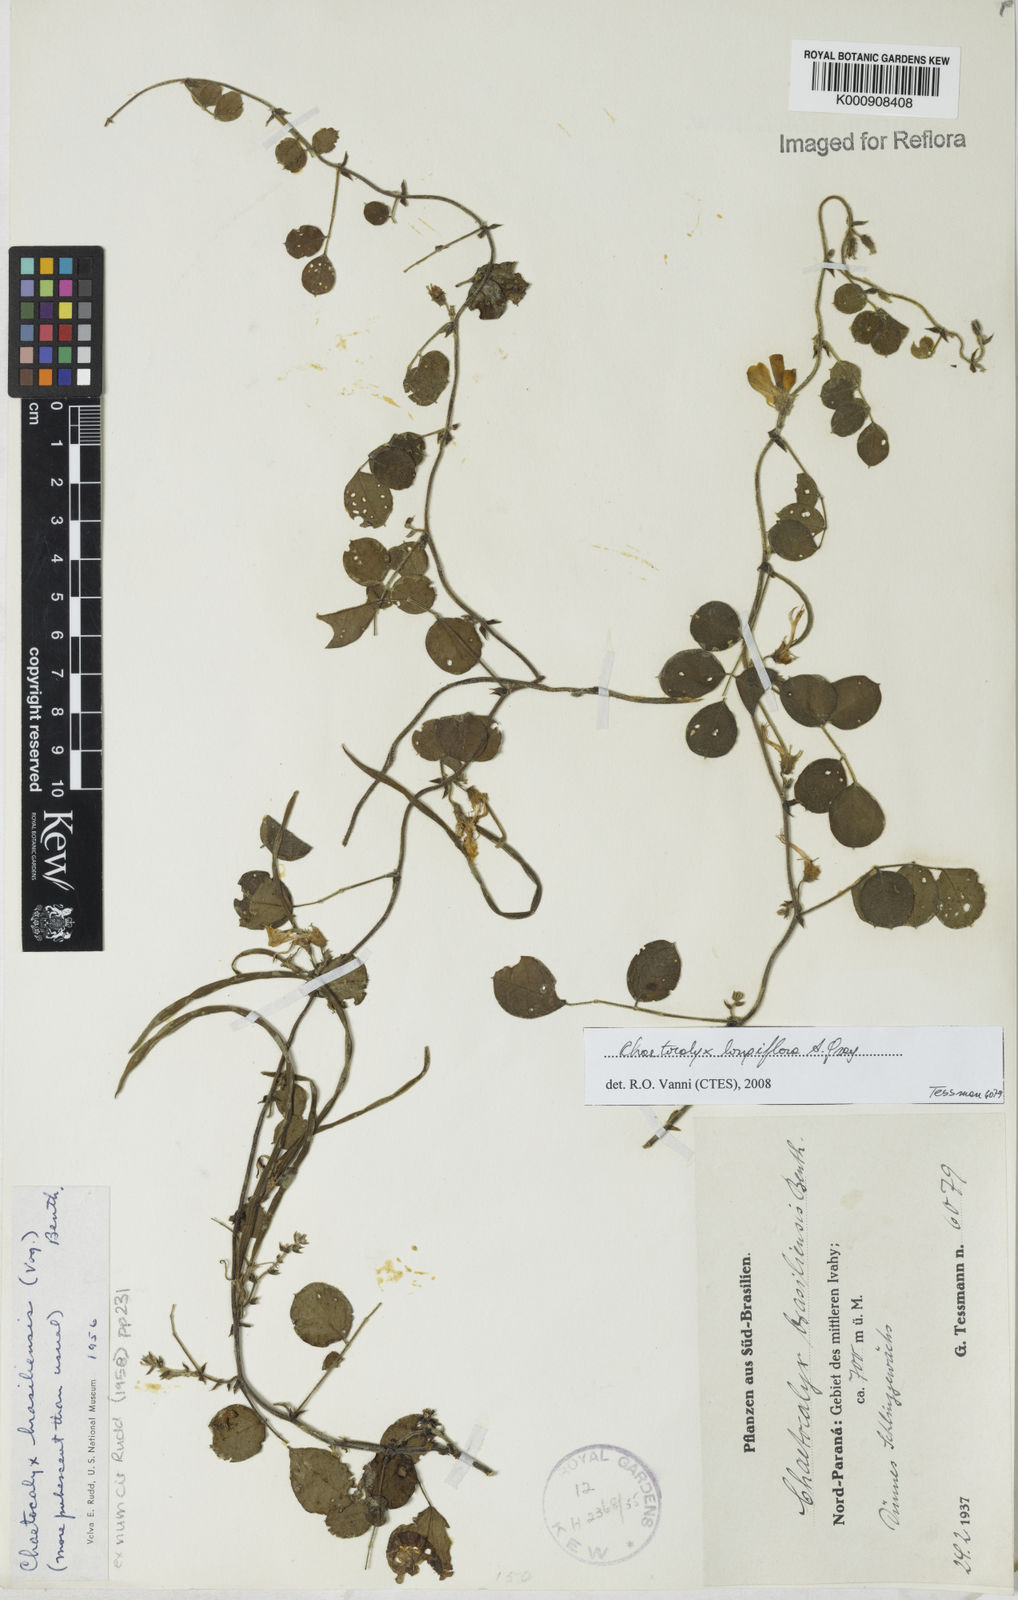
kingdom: Plantae
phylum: Tracheophyta
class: Magnoliopsida
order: Fabales
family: Fabaceae
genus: Nissolia
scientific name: Nissolia longiflora
